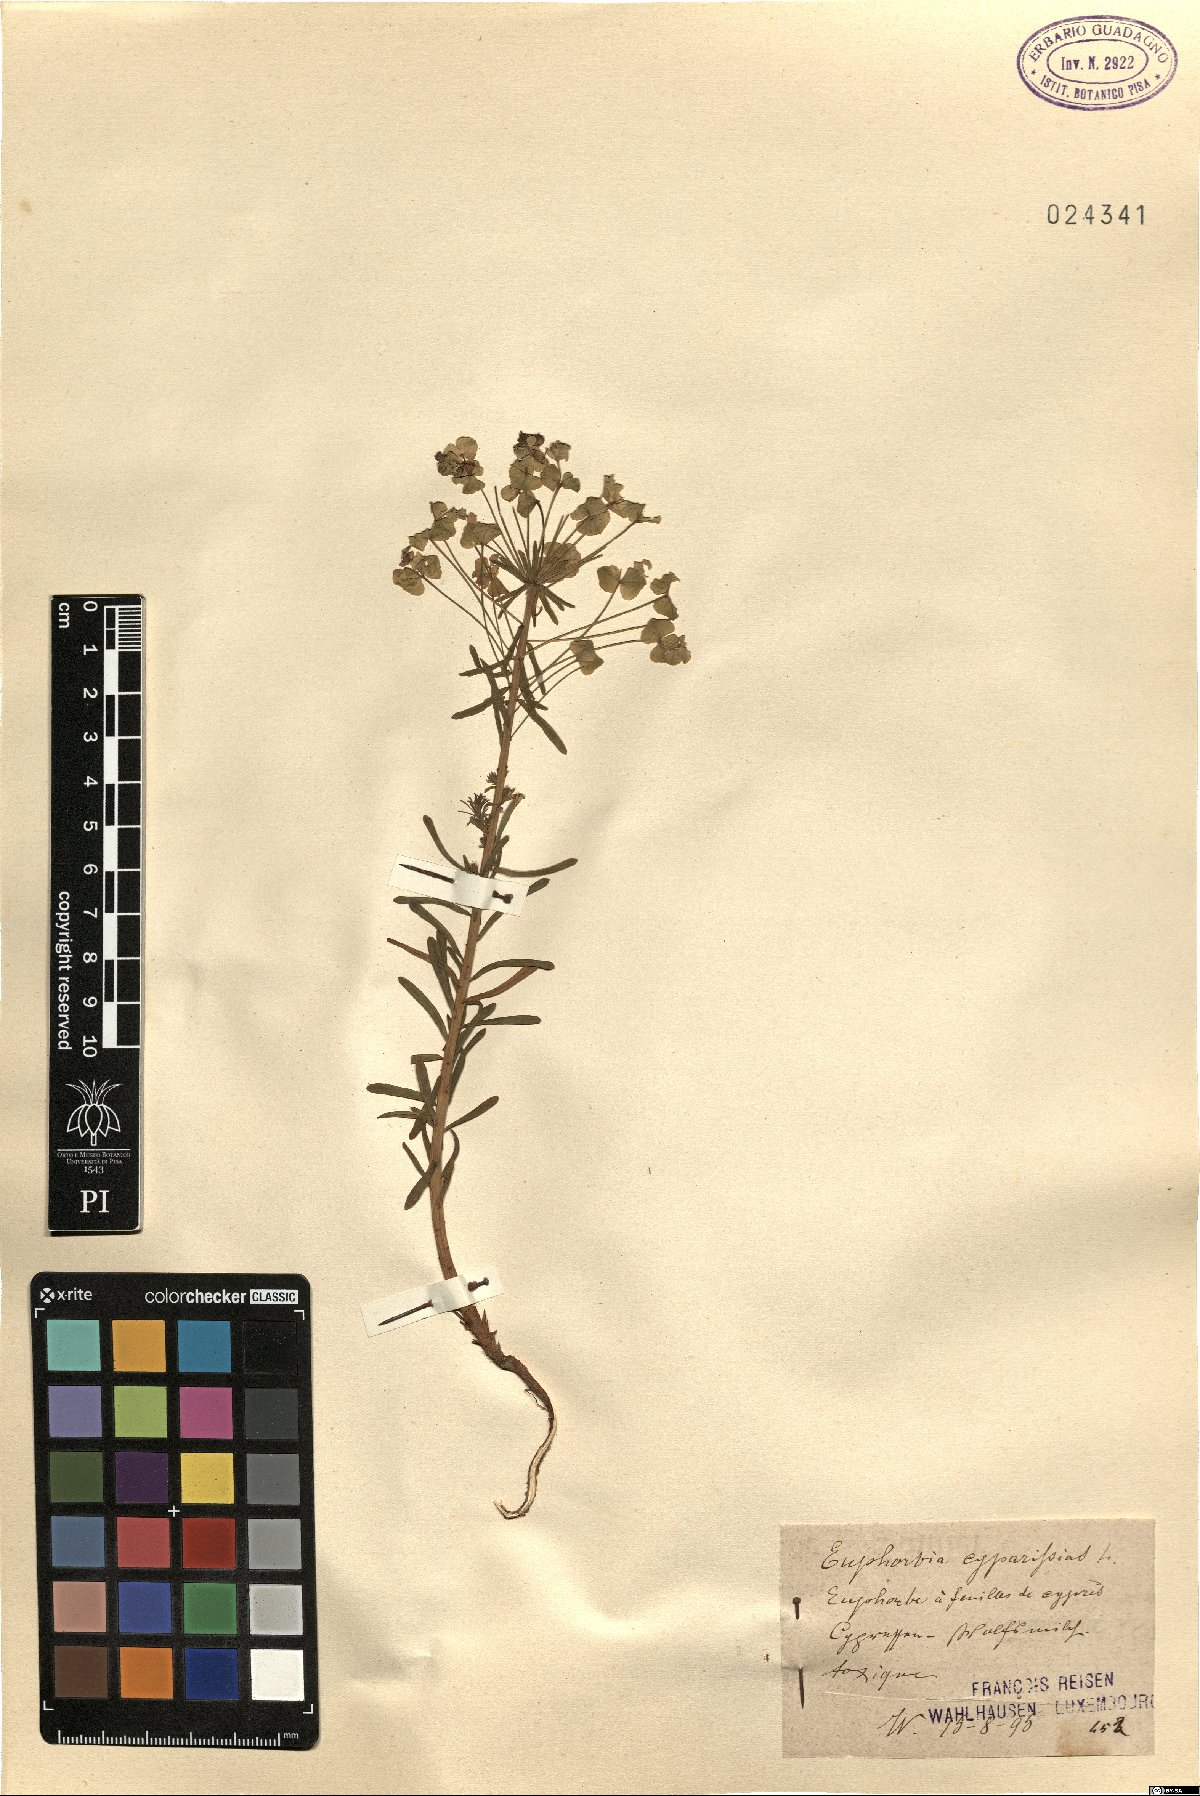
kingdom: Plantae
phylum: Tracheophyta
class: Magnoliopsida
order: Malpighiales
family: Euphorbiaceae
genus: Euphorbia
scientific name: Euphorbia cyparissias
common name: Cypress spurge
